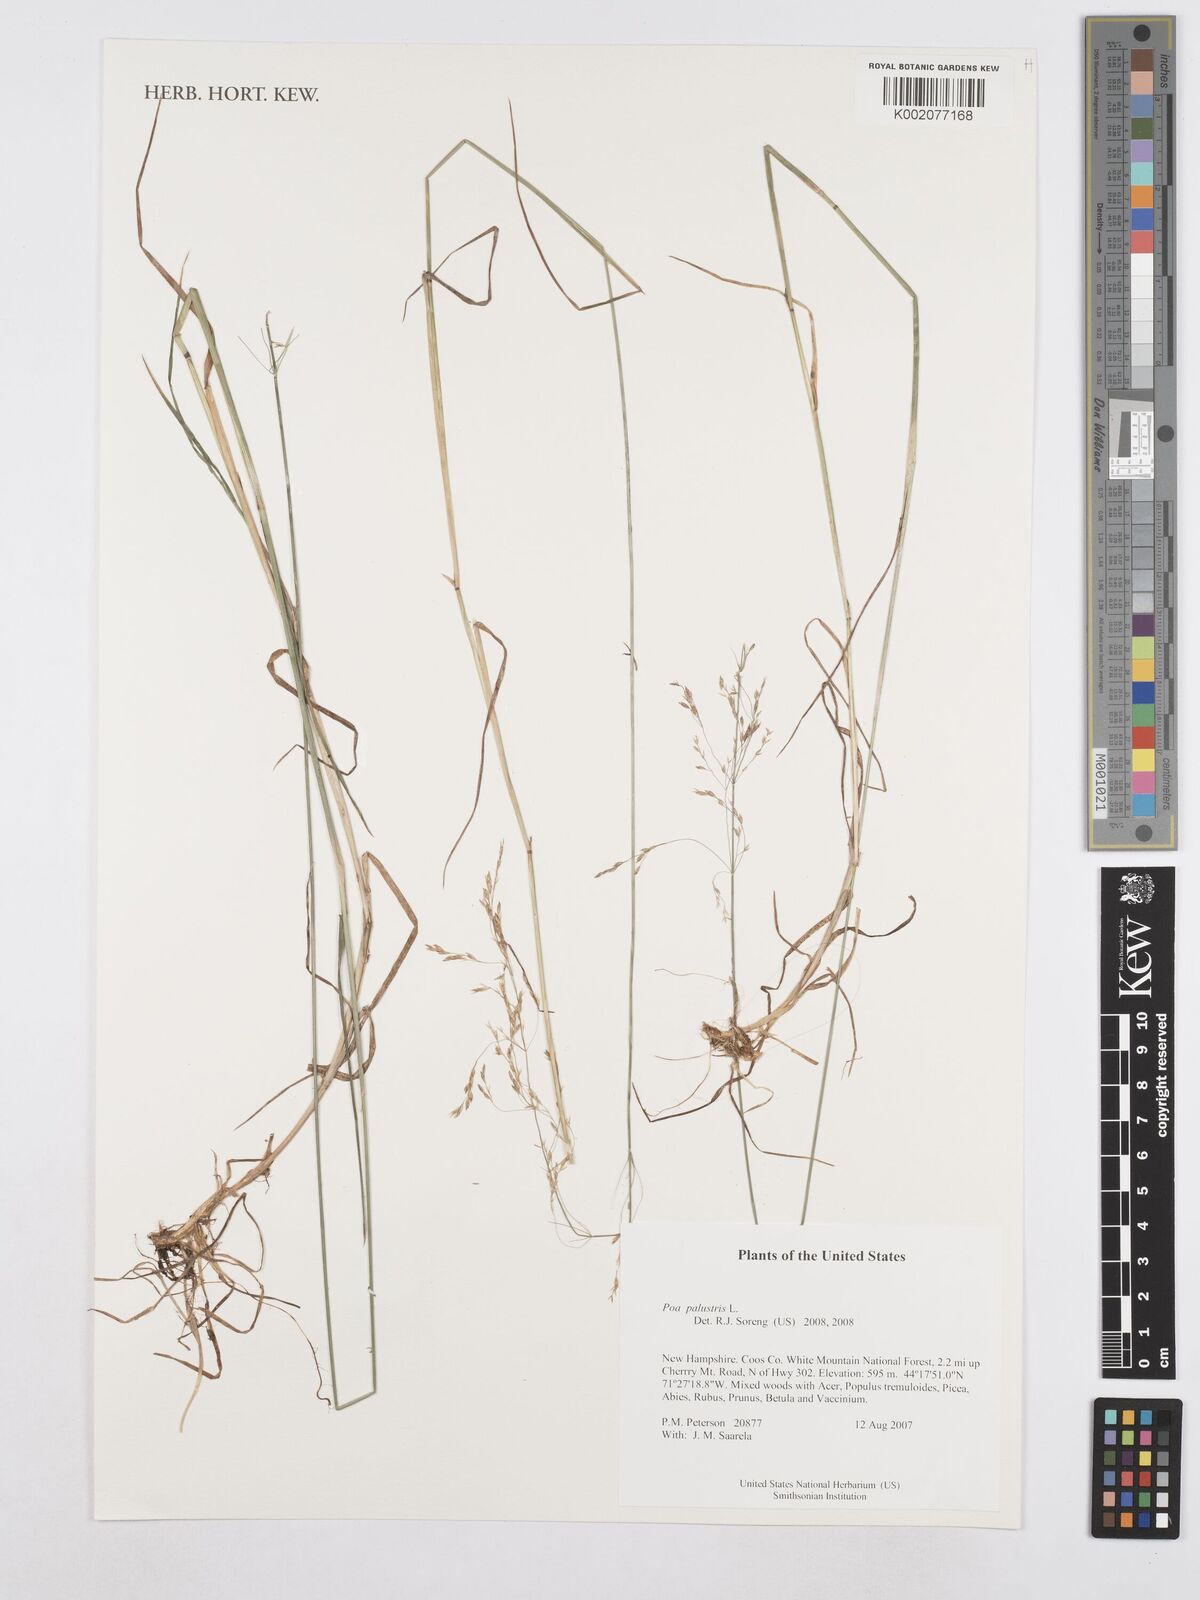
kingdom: Plantae
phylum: Tracheophyta
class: Liliopsida
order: Poales
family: Poaceae
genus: Poa
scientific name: Poa palustris
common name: Swamp meadow-grass
